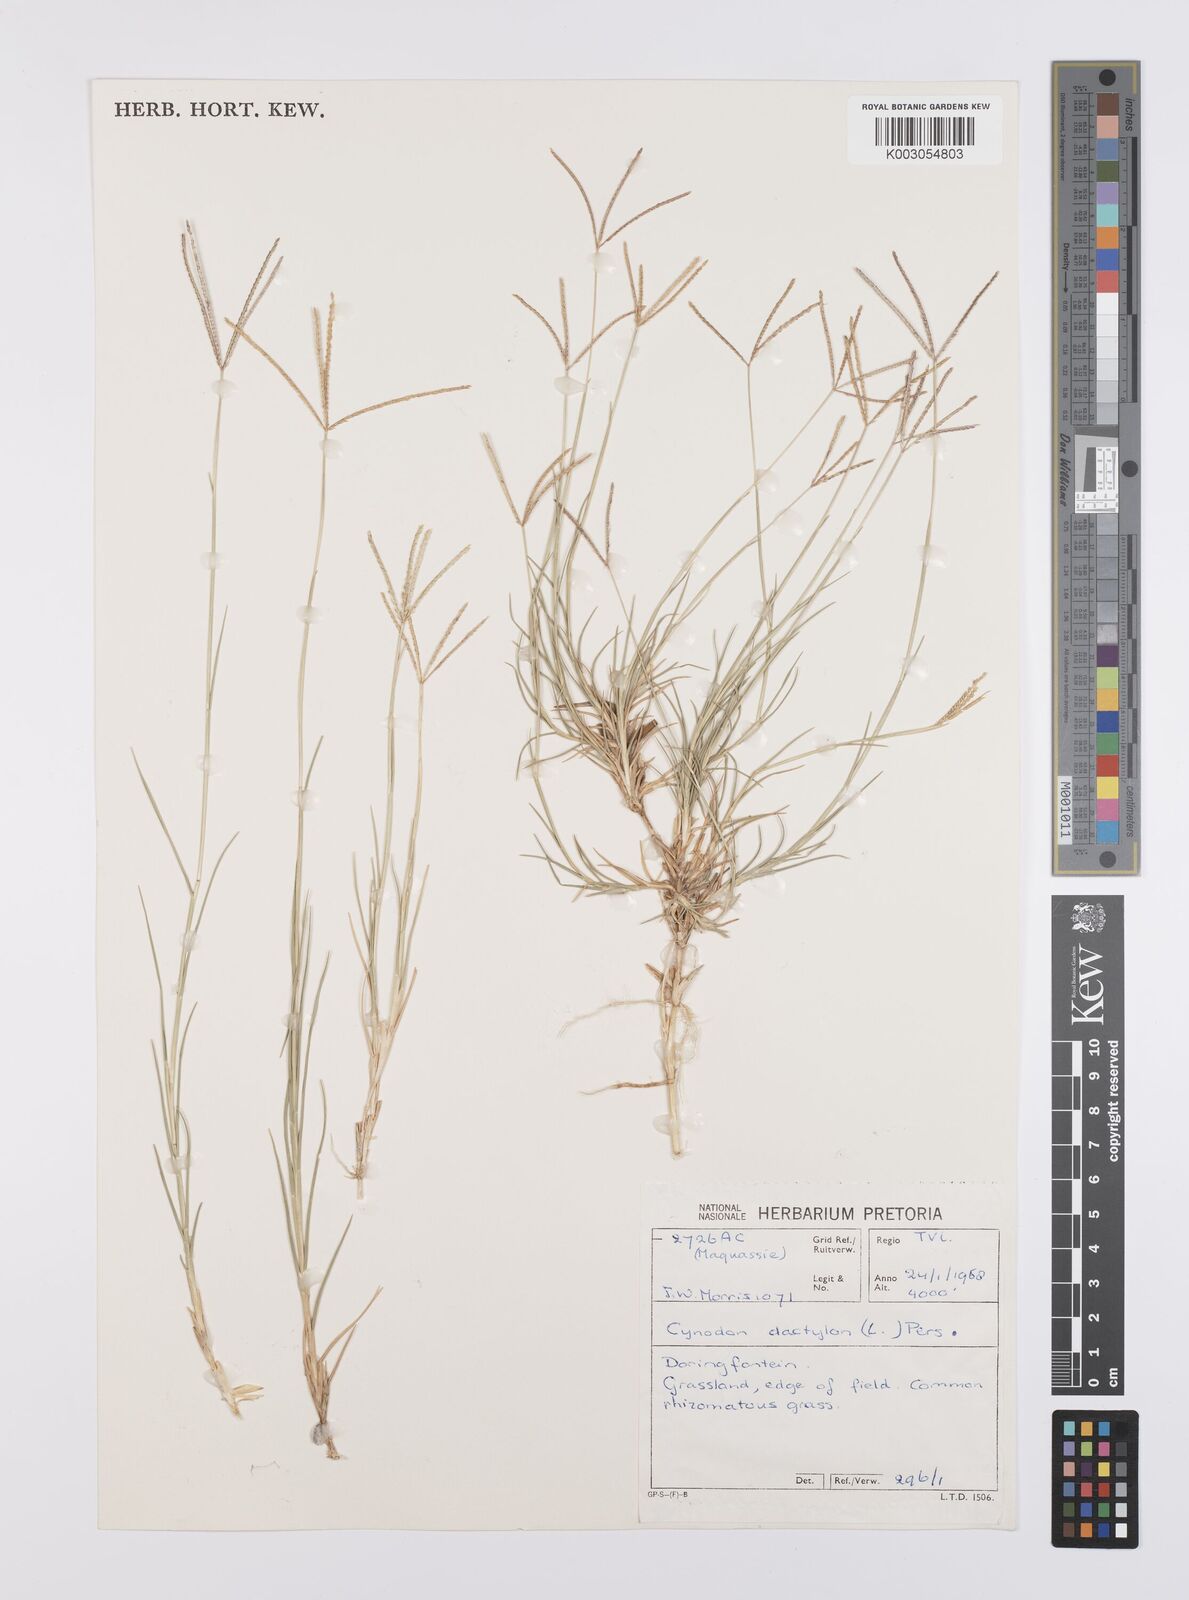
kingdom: Plantae
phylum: Tracheophyta
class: Liliopsida
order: Poales
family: Poaceae
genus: Cynodon
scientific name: Cynodon dactylon
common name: Bermuda grass
